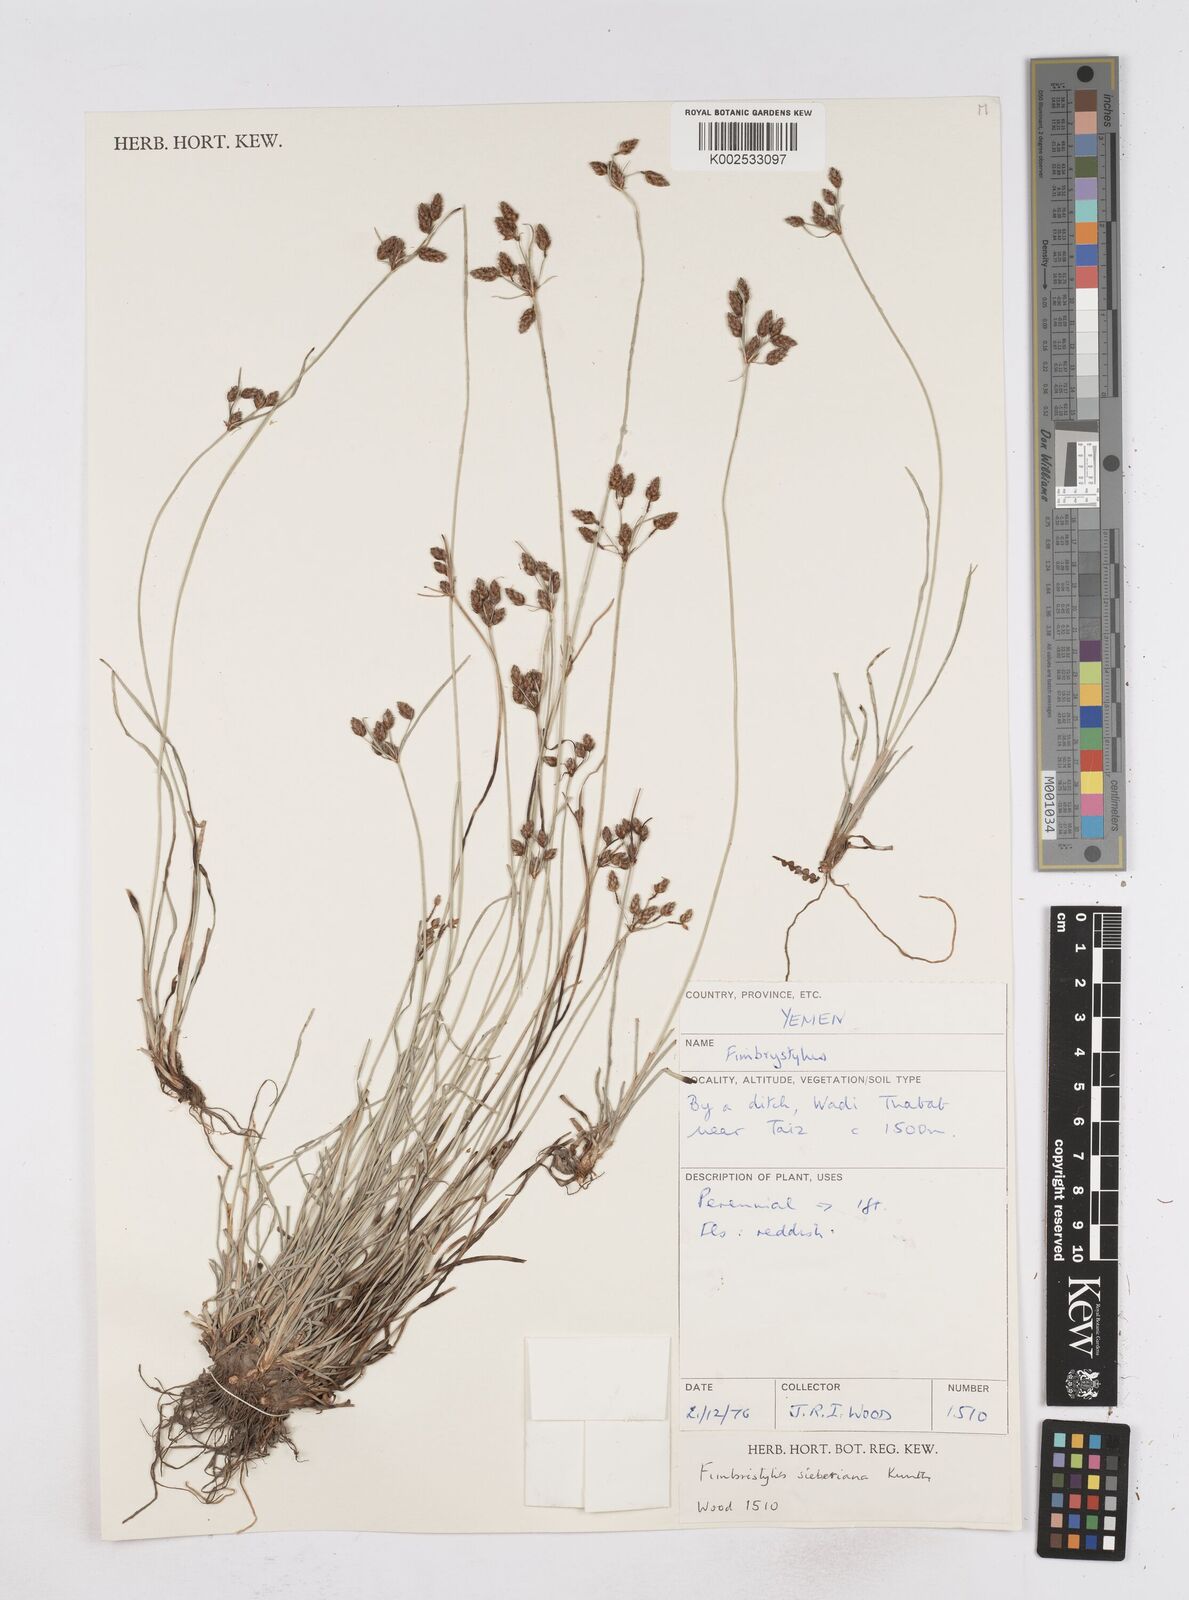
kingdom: Plantae
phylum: Tracheophyta
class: Liliopsida
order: Poales
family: Cyperaceae
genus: Fimbristylis
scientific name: Fimbristylis ferruginea
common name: West indian fimbry
